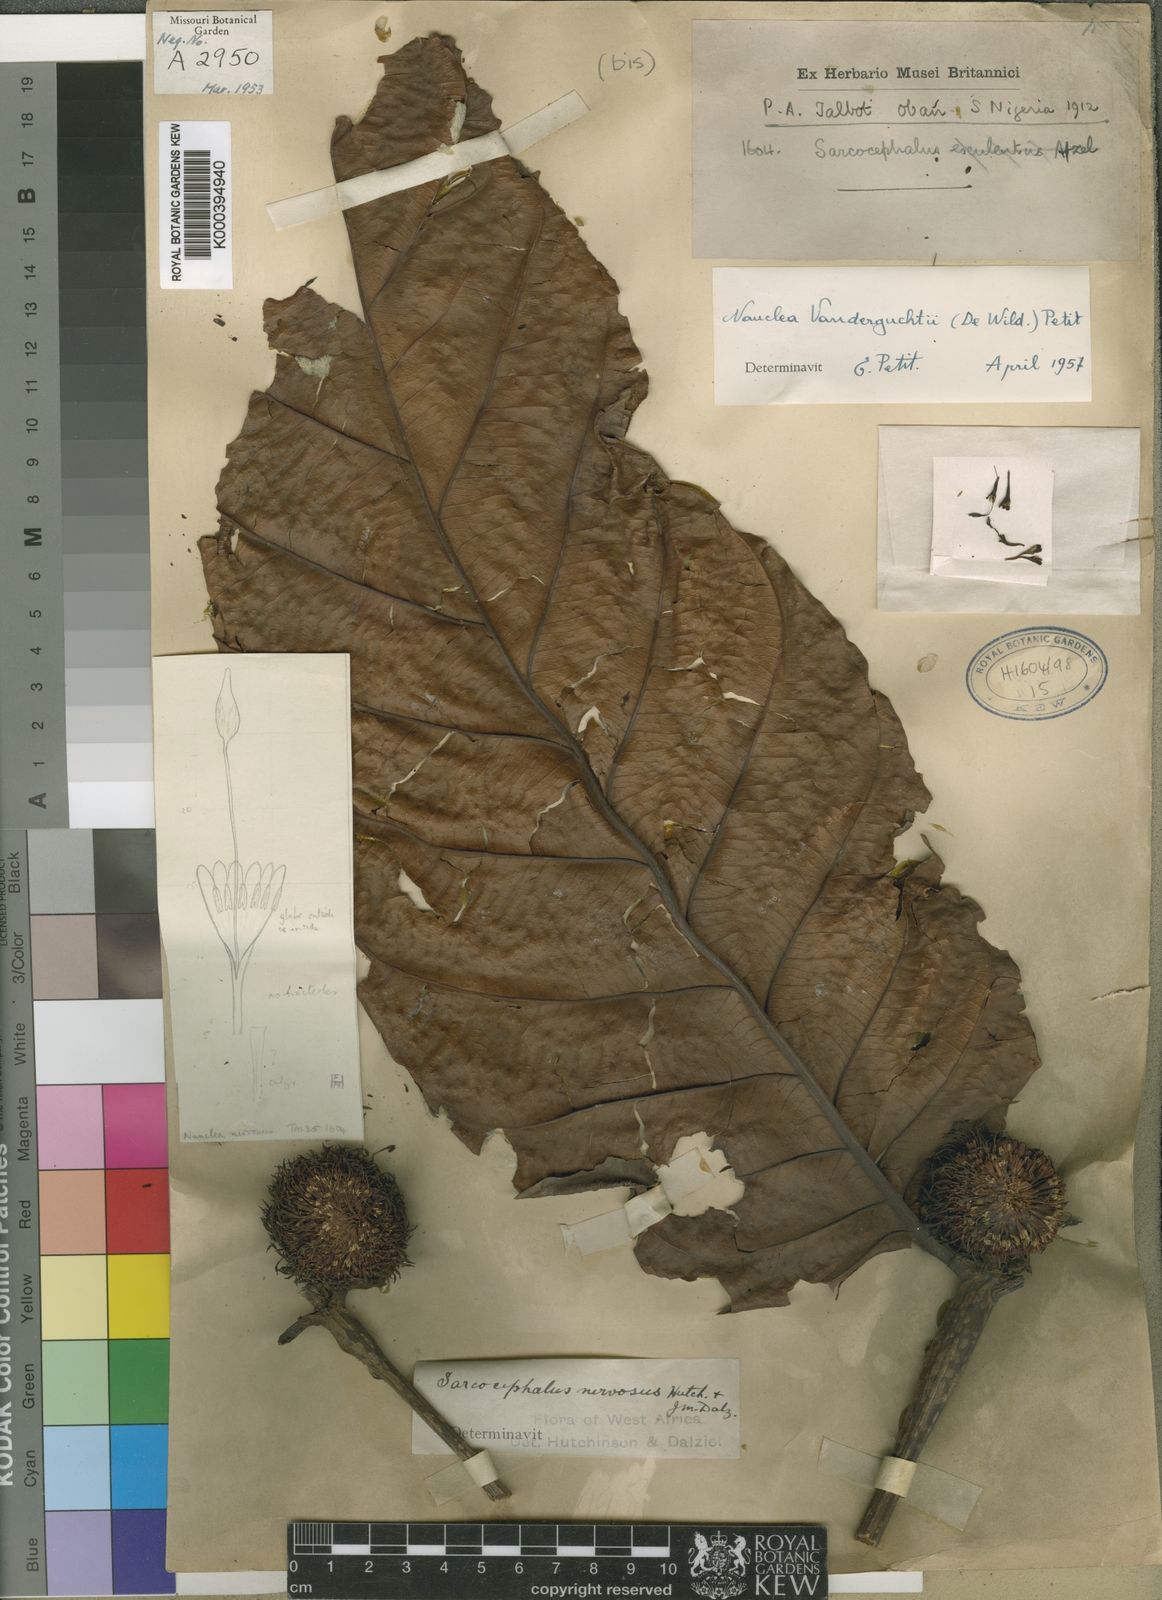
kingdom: Plantae
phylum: Tracheophyta
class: Magnoliopsida
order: Gentianales
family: Rubiaceae
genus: Nauclea
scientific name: Nauclea vanderguchtii
